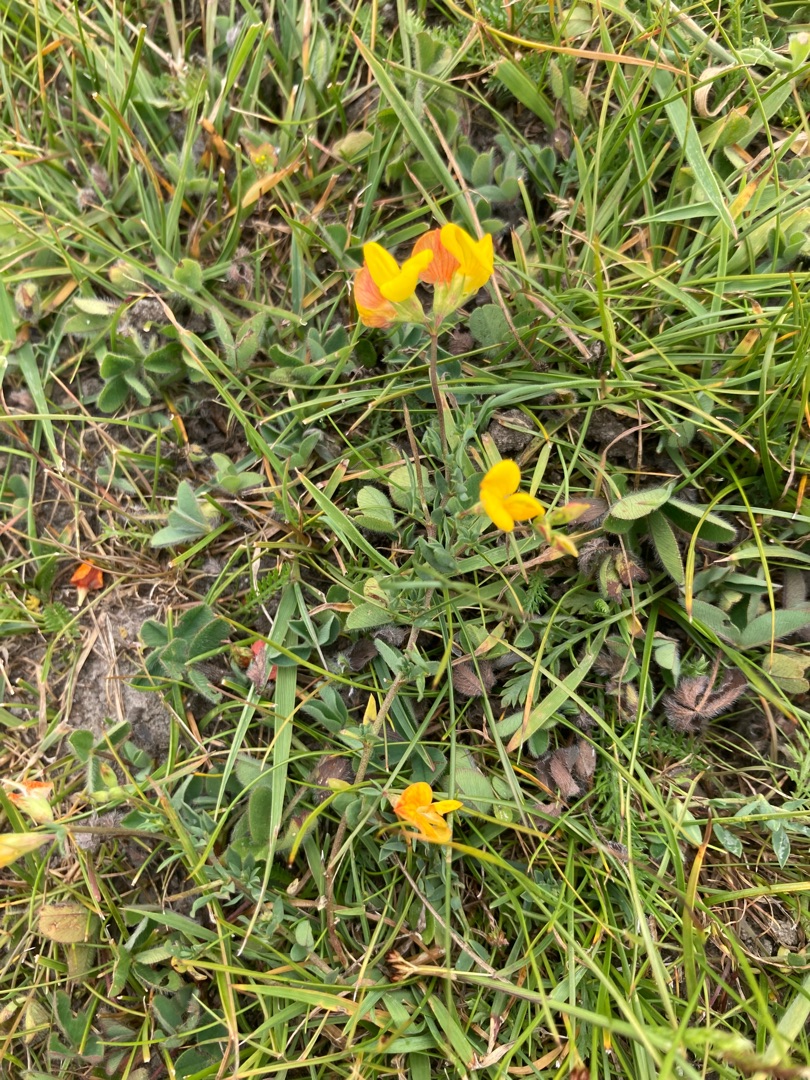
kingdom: Plantae
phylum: Tracheophyta
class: Magnoliopsida
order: Fabales
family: Fabaceae
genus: Lotus
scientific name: Lotus corniculatus
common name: Almindelig kællingetand
